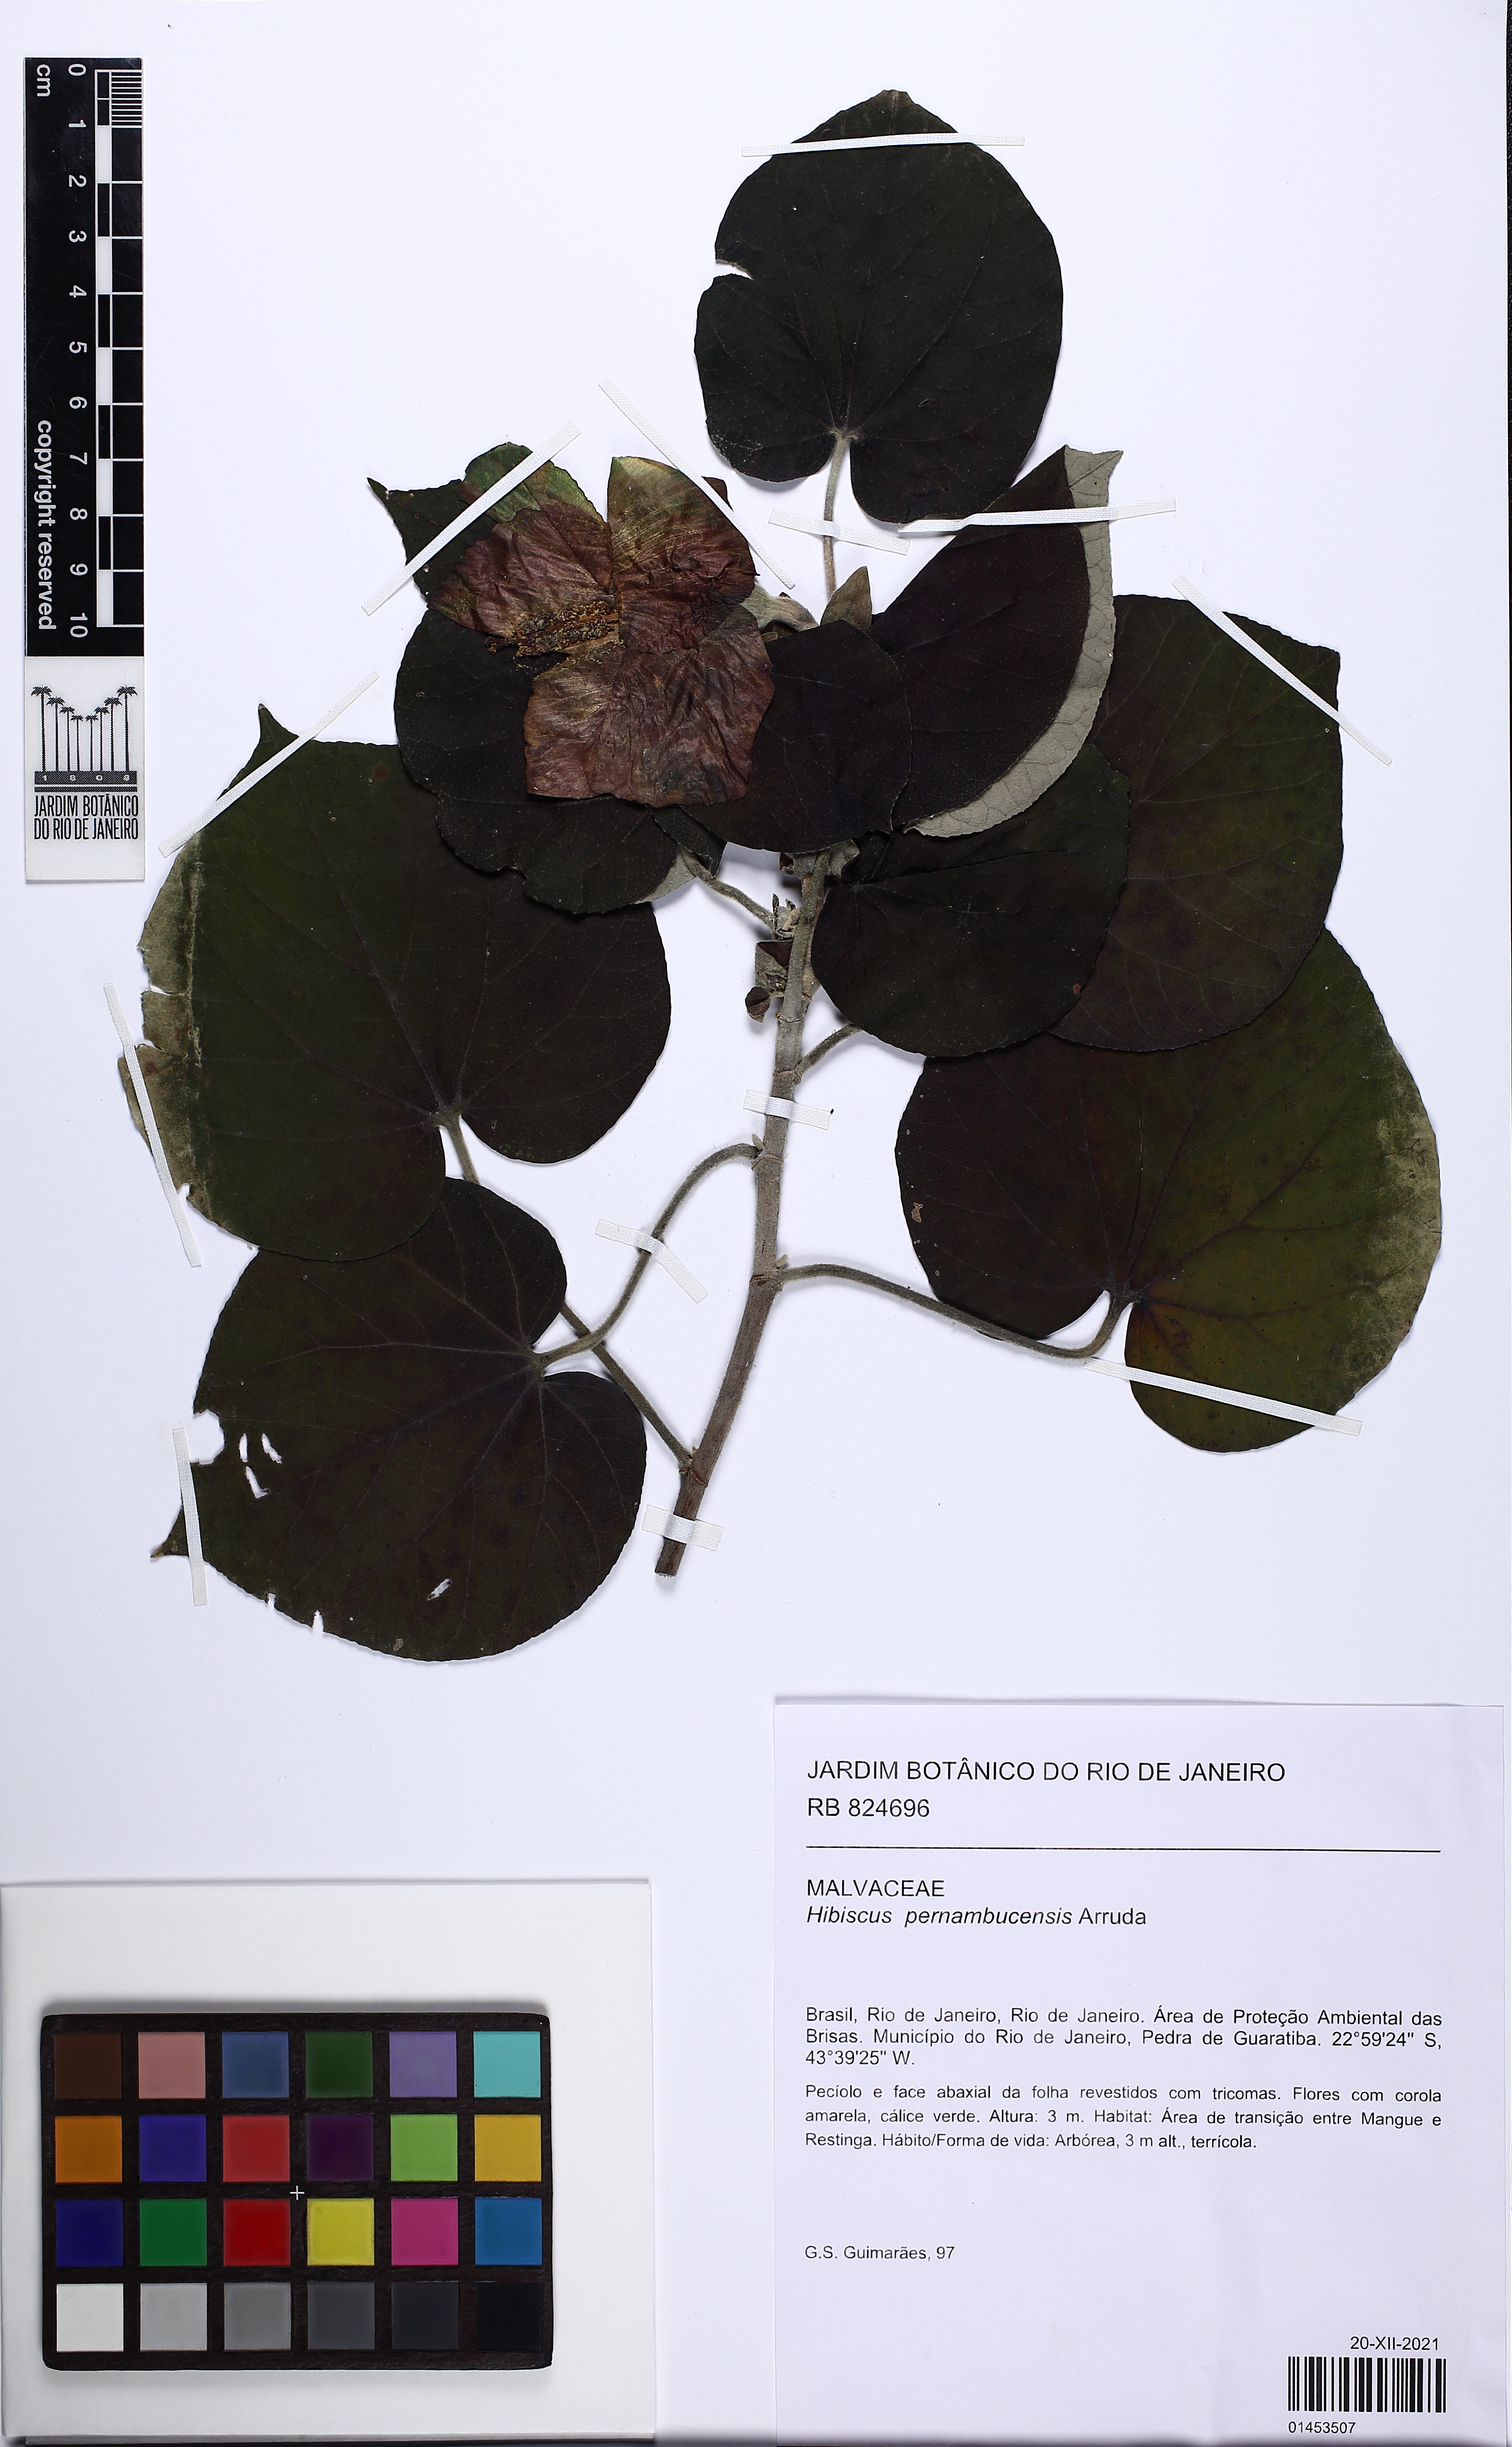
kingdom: Plantae
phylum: Tracheophyta
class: Magnoliopsida
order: Malvales
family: Malvaceae
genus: Talipariti
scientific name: Talipariti pernambucense
